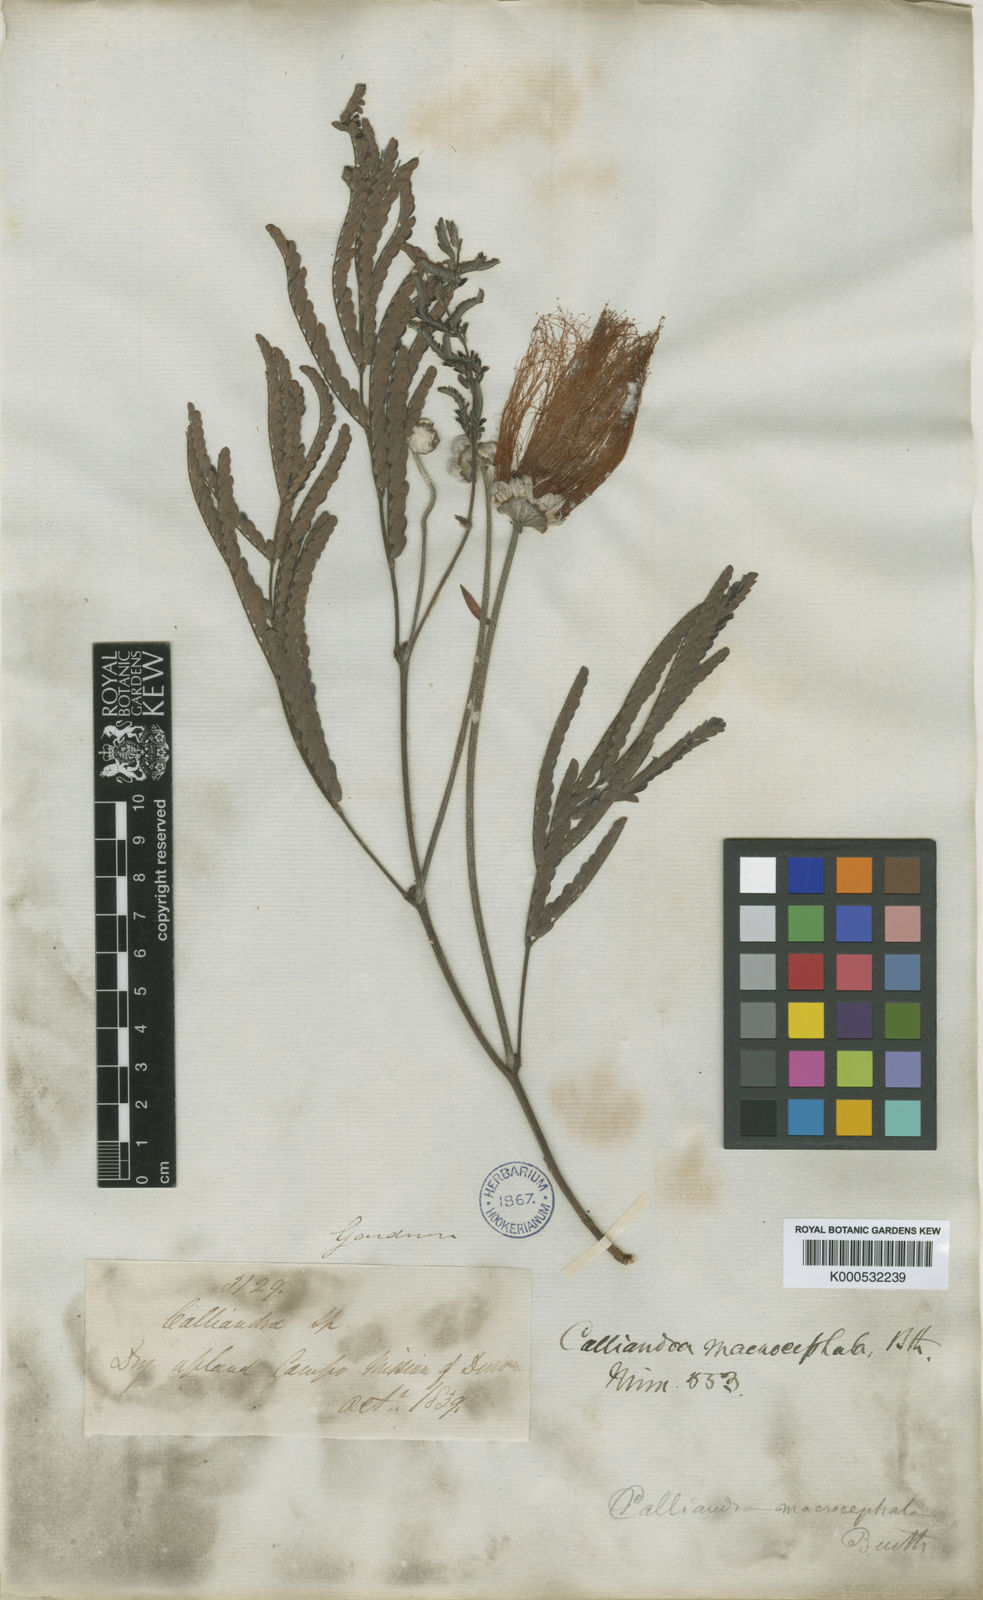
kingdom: Plantae
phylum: Tracheophyta
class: Magnoliopsida
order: Fabales
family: Fabaceae
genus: Calliandra
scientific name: Calliandra dysantha
